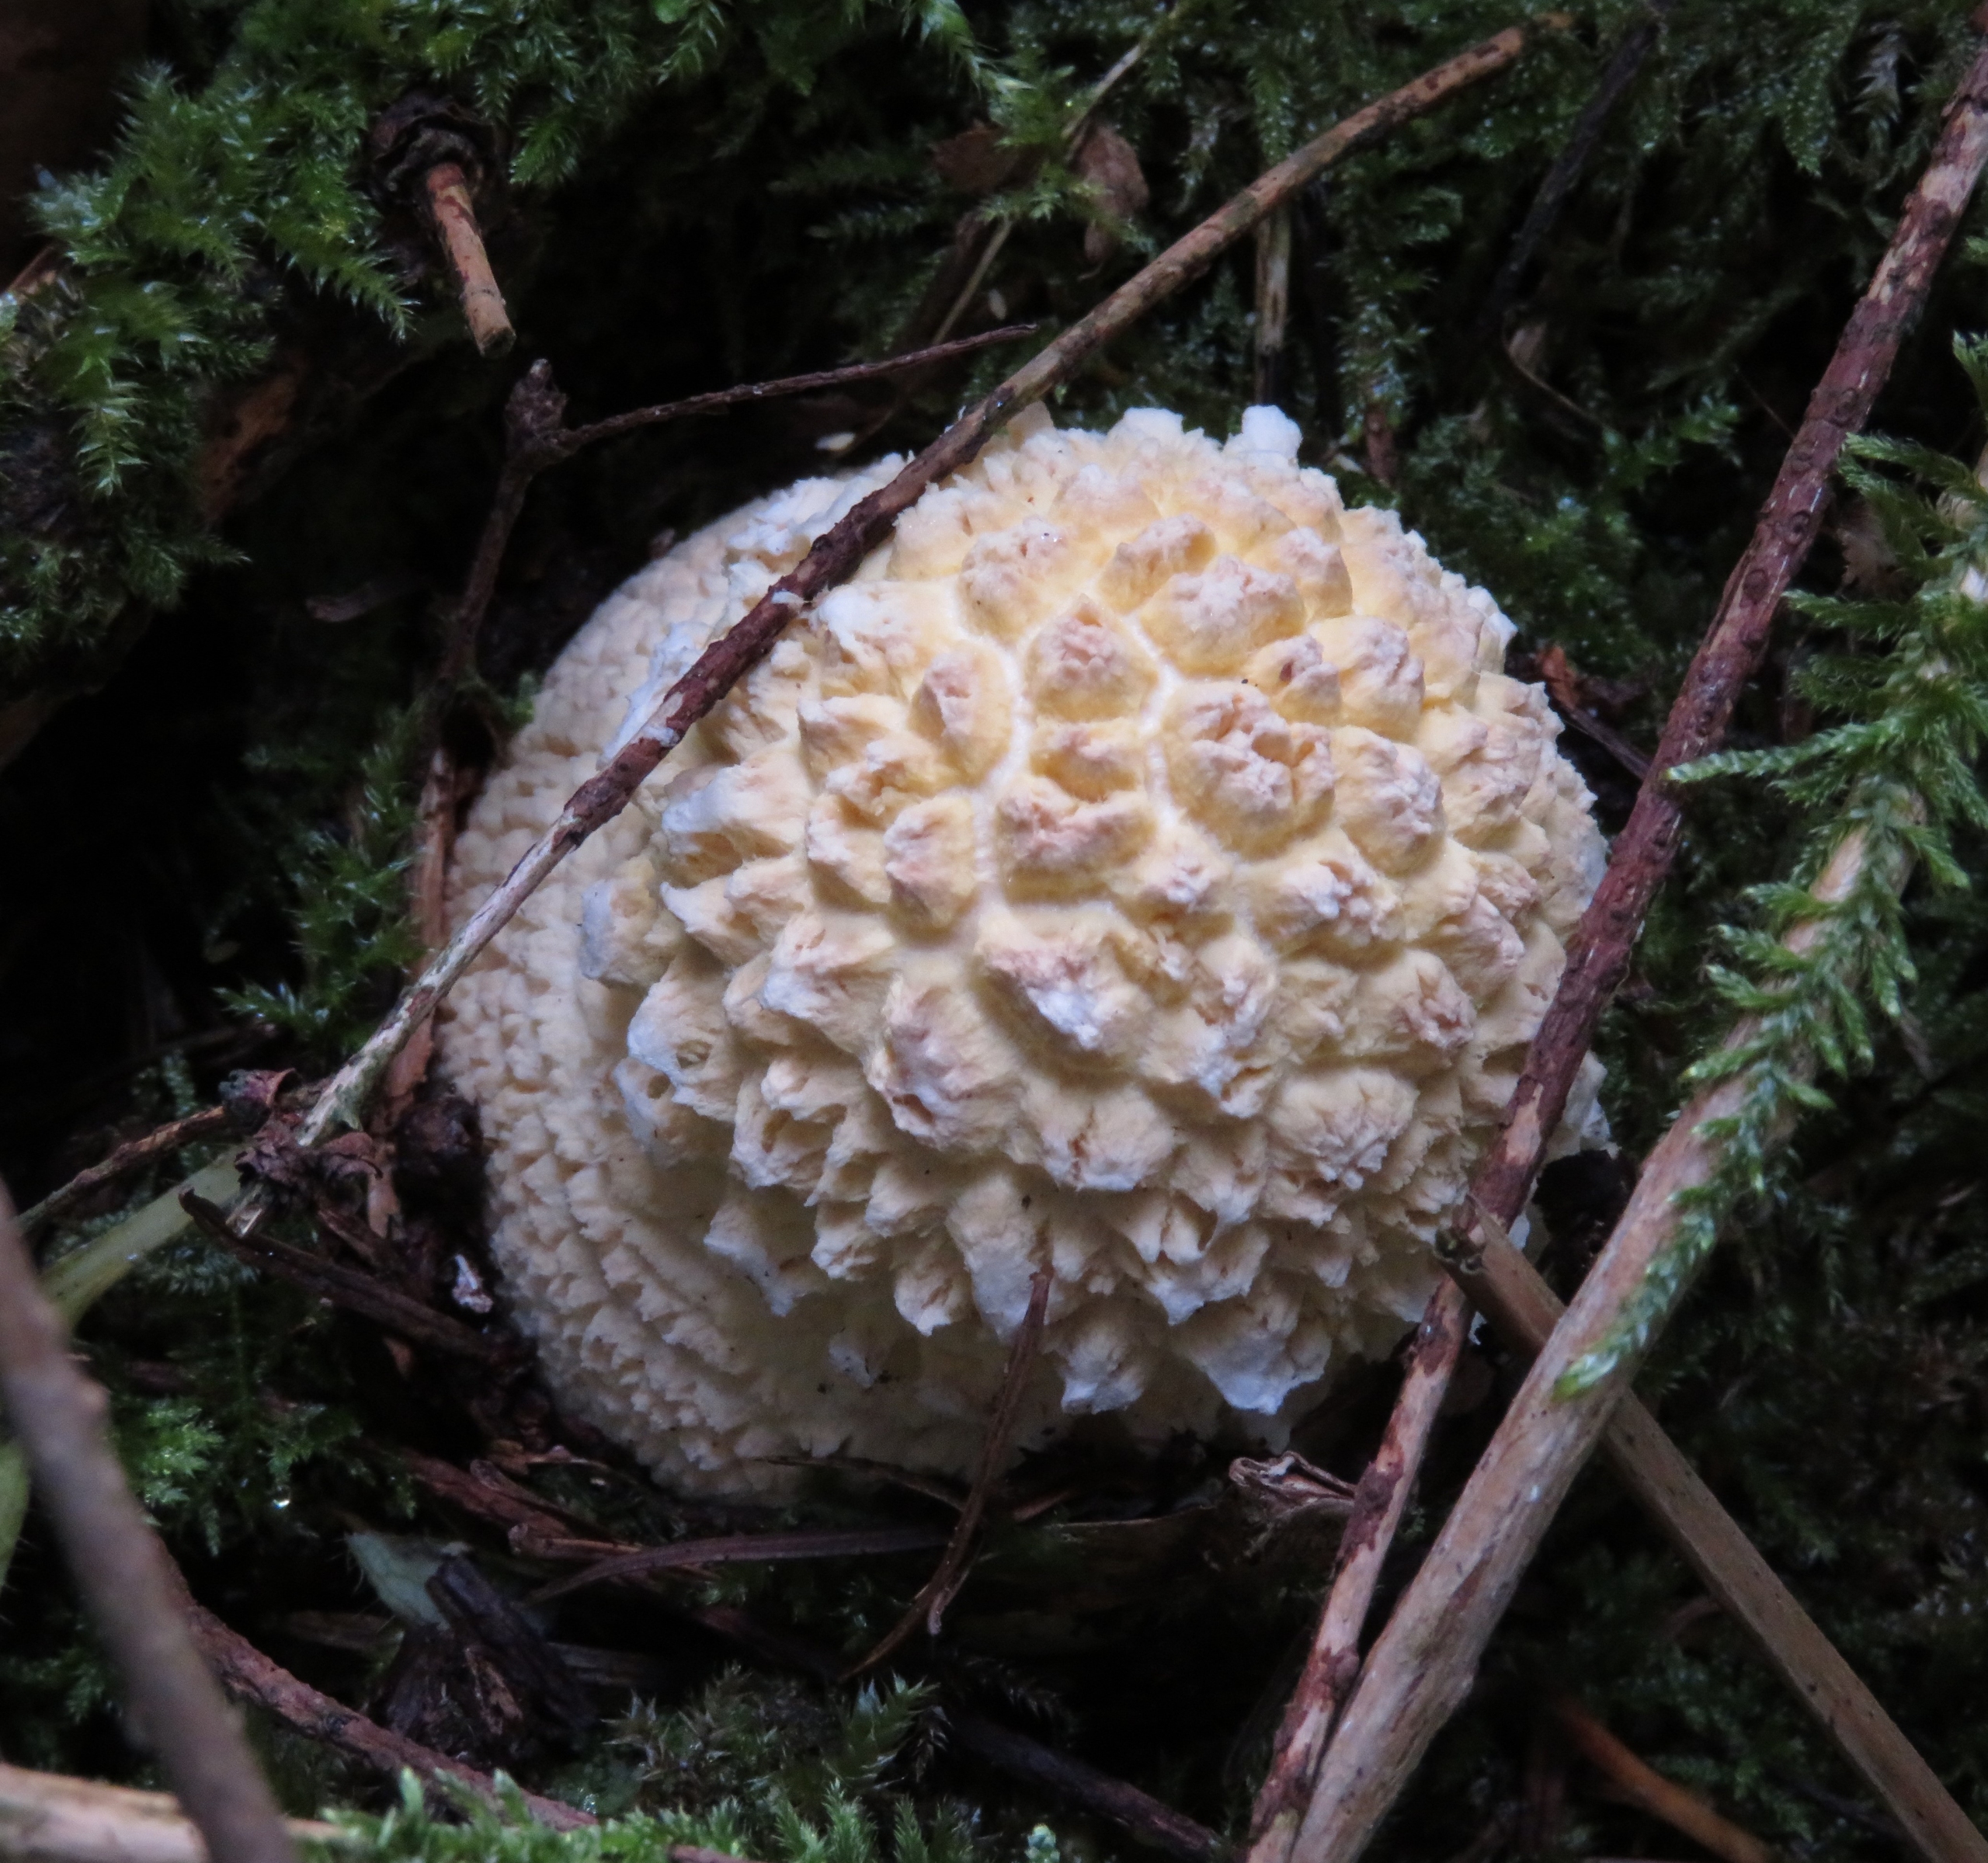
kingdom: Fungi
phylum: Basidiomycota
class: Agaricomycetes
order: Agaricales
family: Amanitaceae
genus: Amanita
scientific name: Amanita muscaria
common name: Rød fluesvamp
